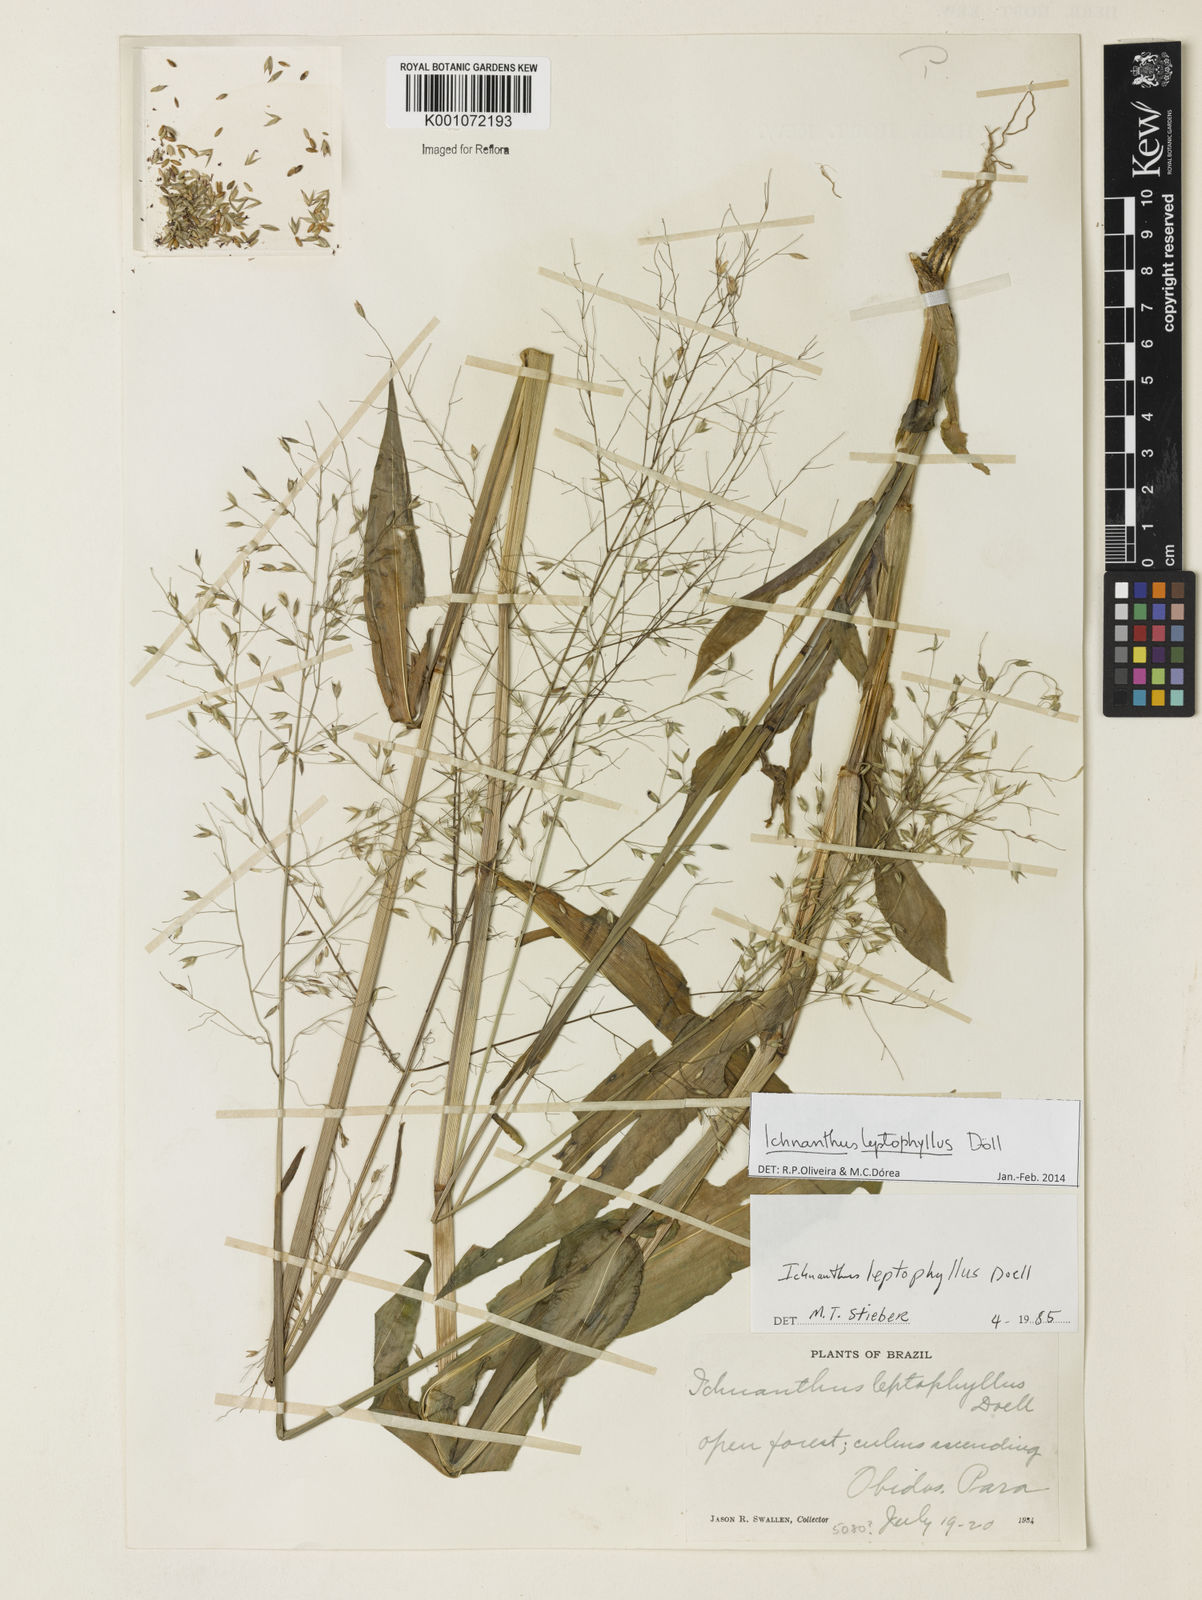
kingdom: Plantae
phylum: Tracheophyta
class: Liliopsida
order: Poales
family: Poaceae
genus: Ichnanthus
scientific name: Ichnanthus
